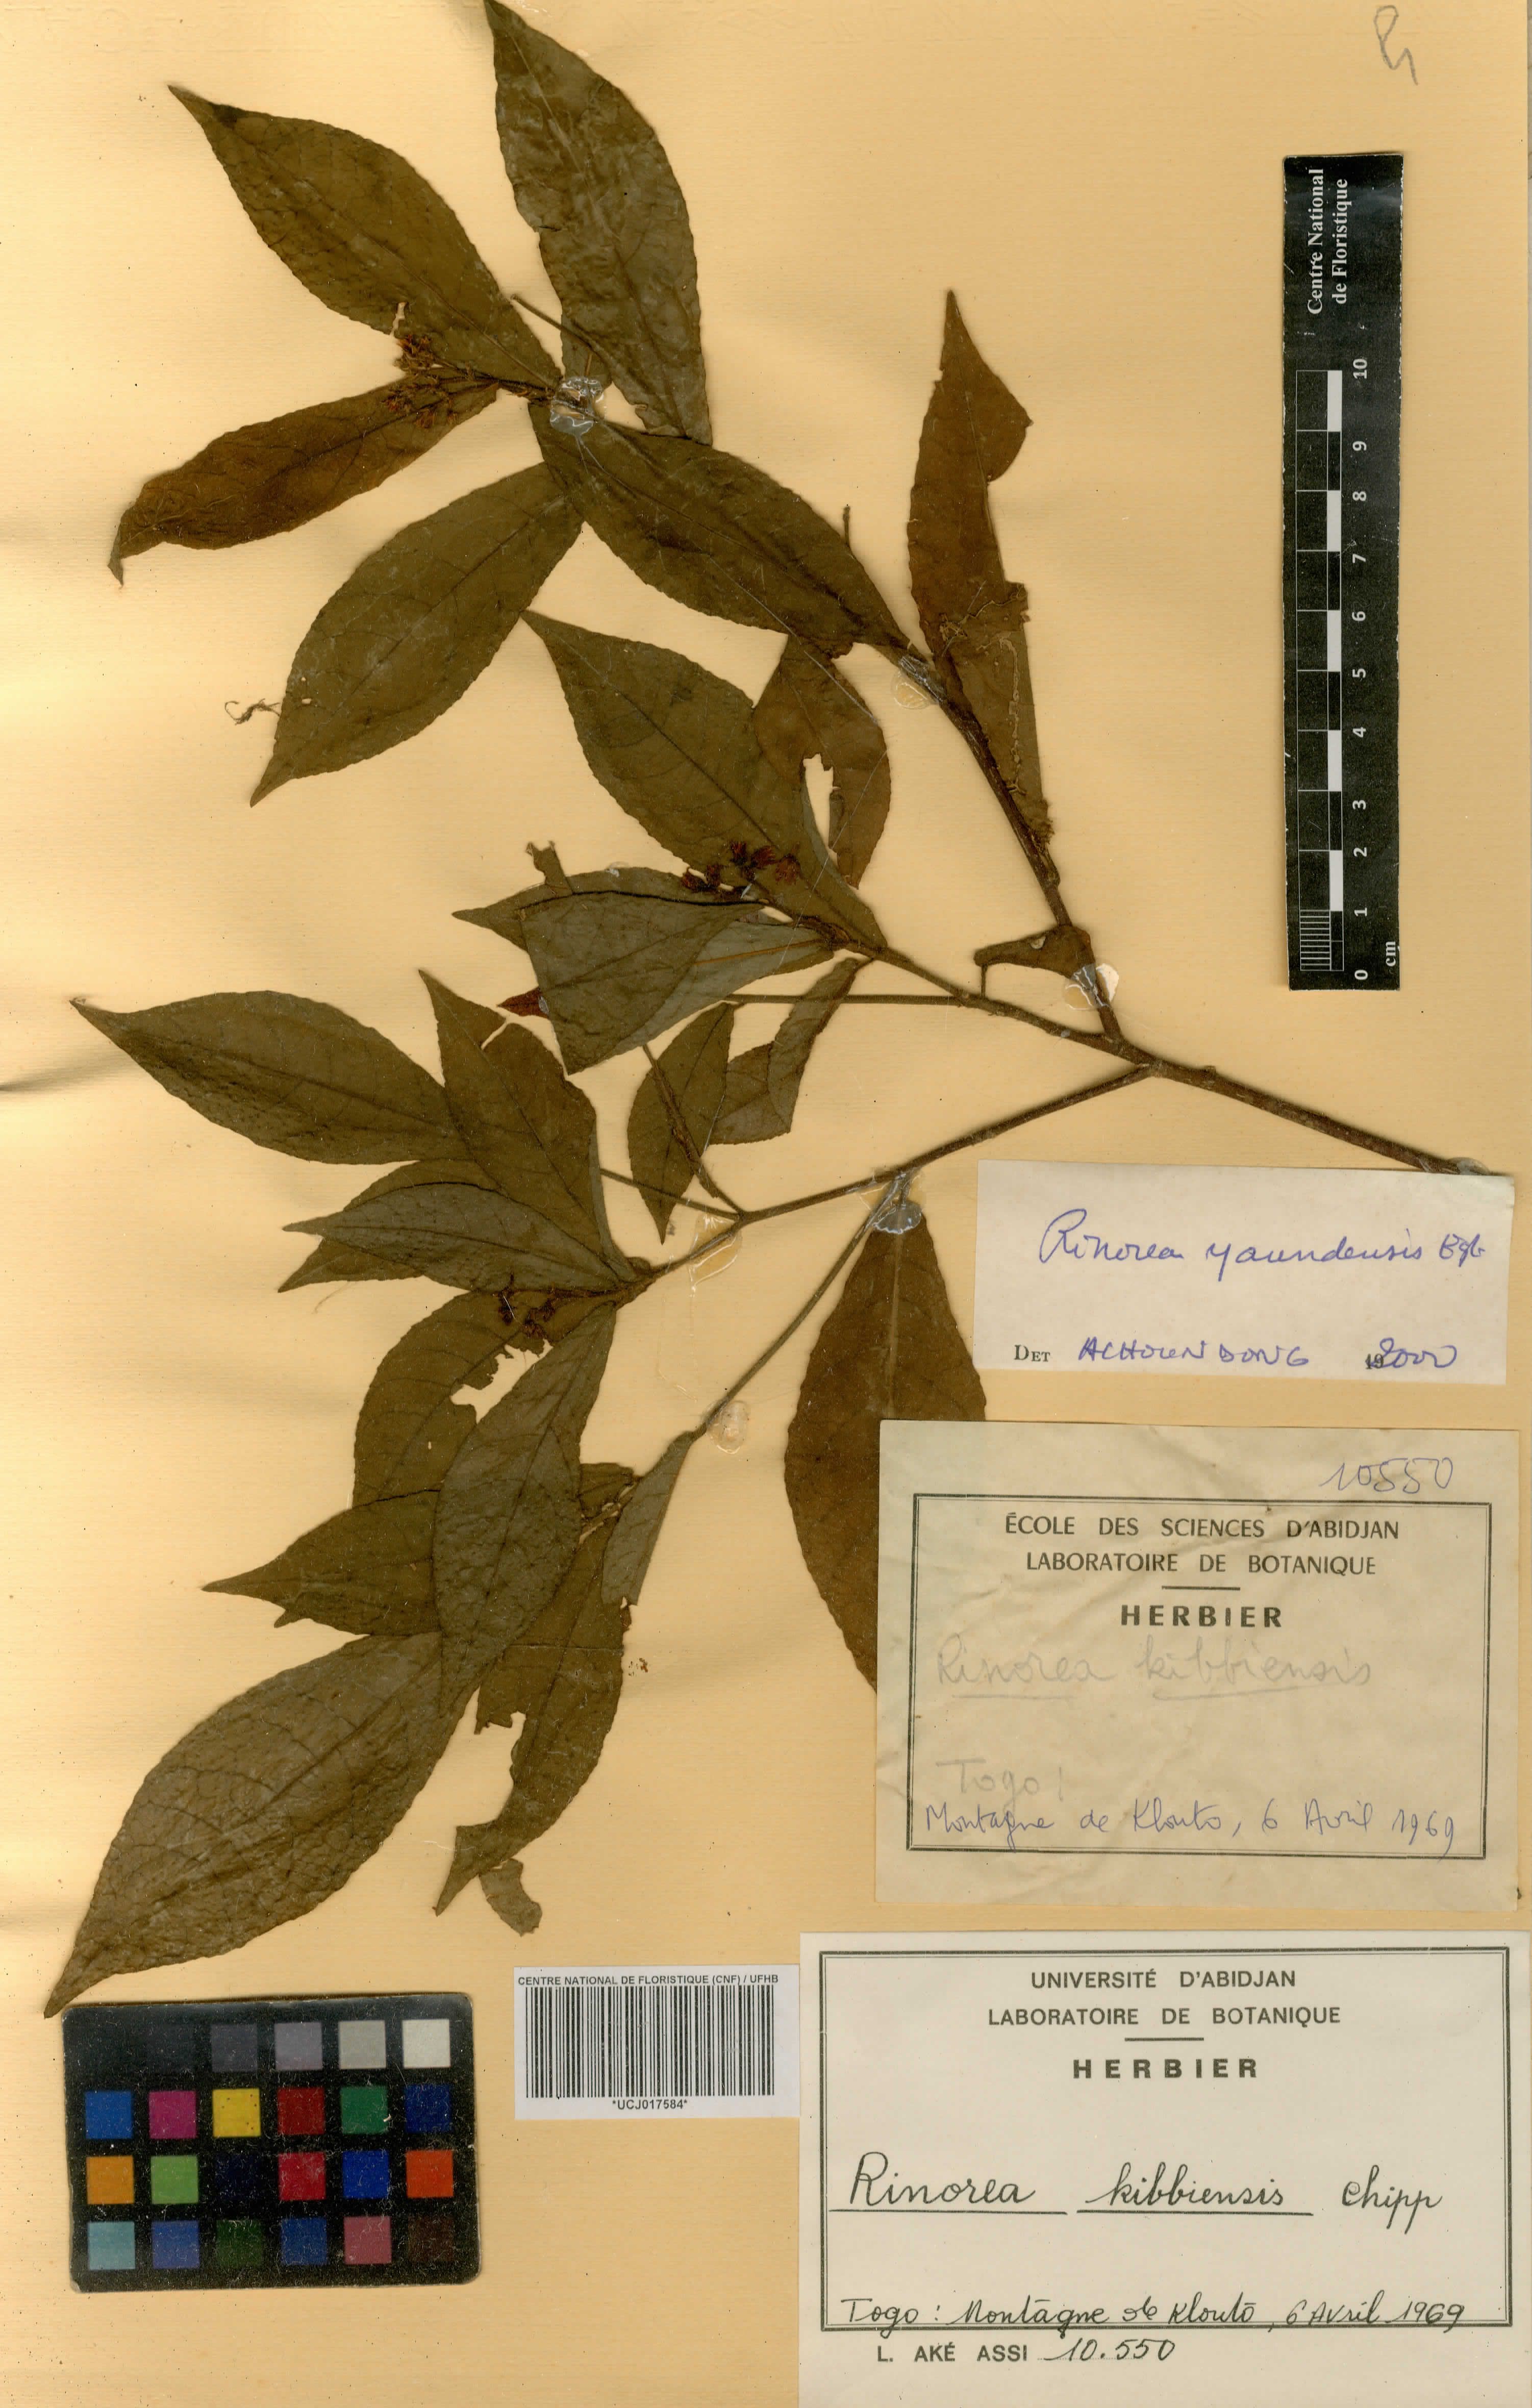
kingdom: Plantae
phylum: Tracheophyta
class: Magnoliopsida
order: Malpighiales
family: Violaceae
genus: Rinorea
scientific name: Rinorea kibbiensis
